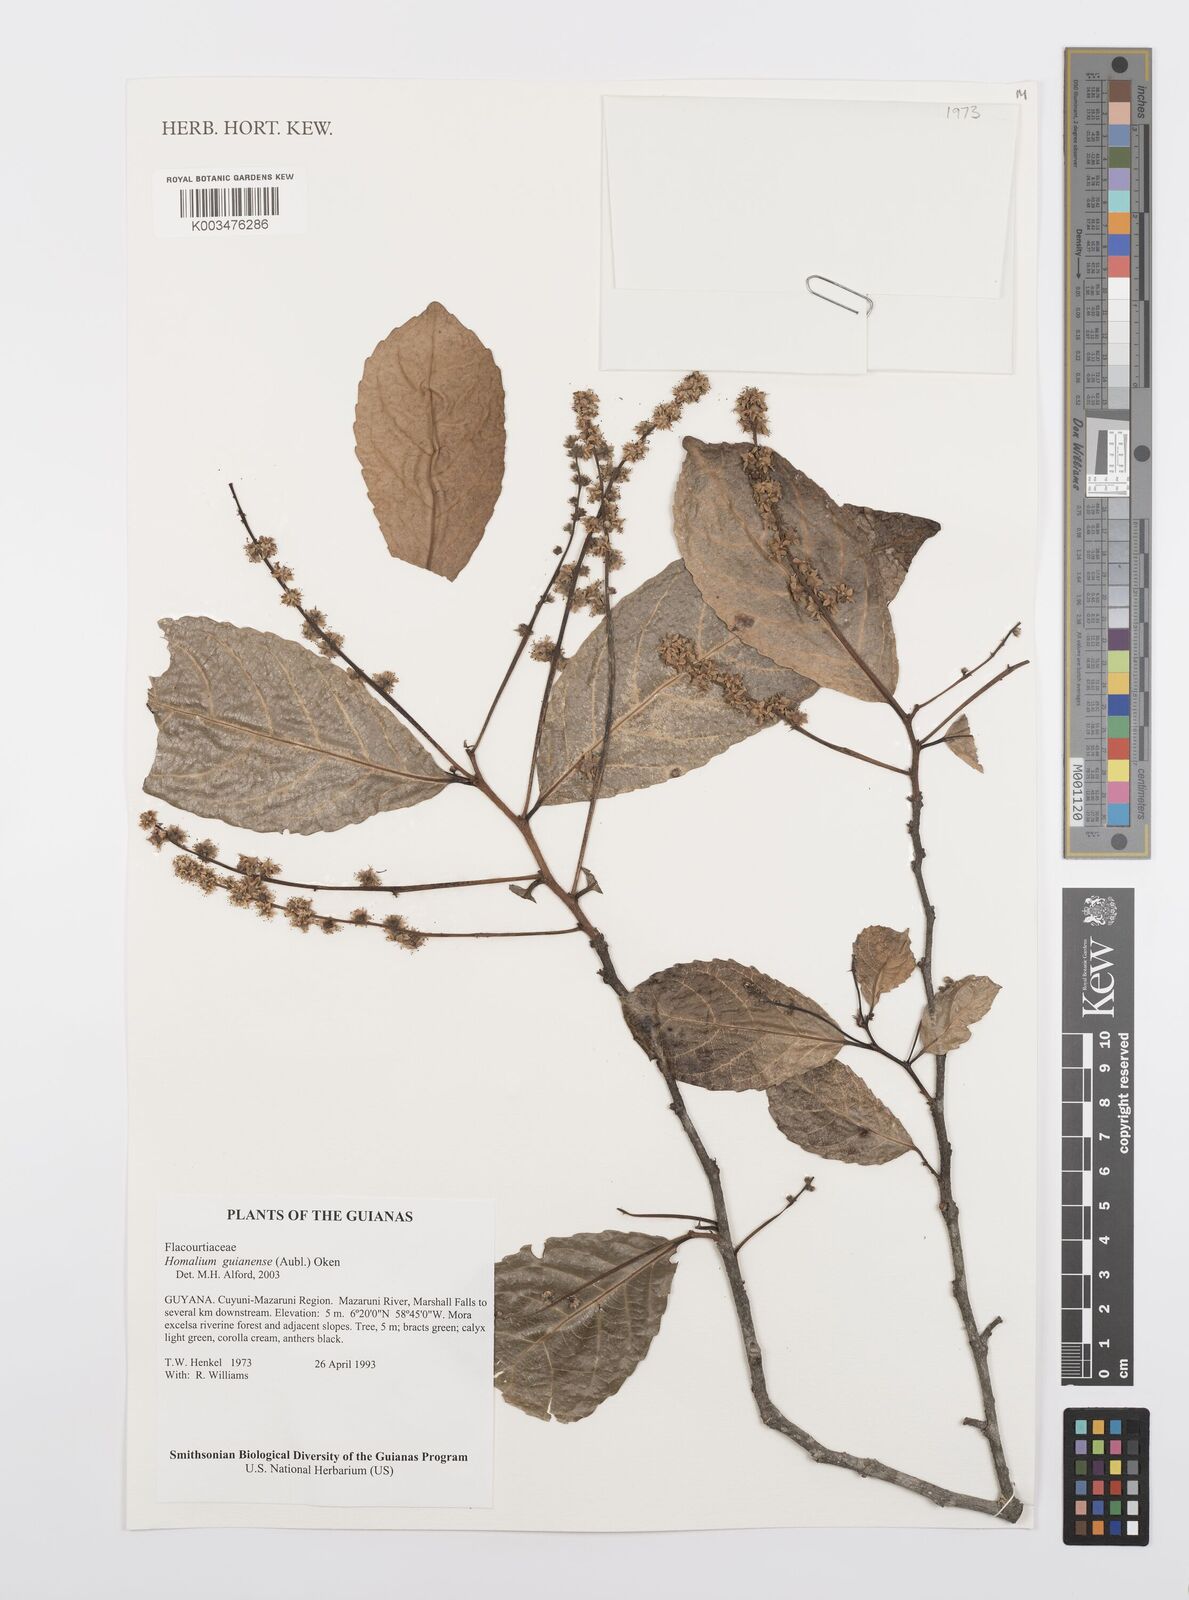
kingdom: Plantae
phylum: Tracheophyta
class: Magnoliopsida
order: Malpighiales
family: Salicaceae
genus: Homalium
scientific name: Homalium guianense
